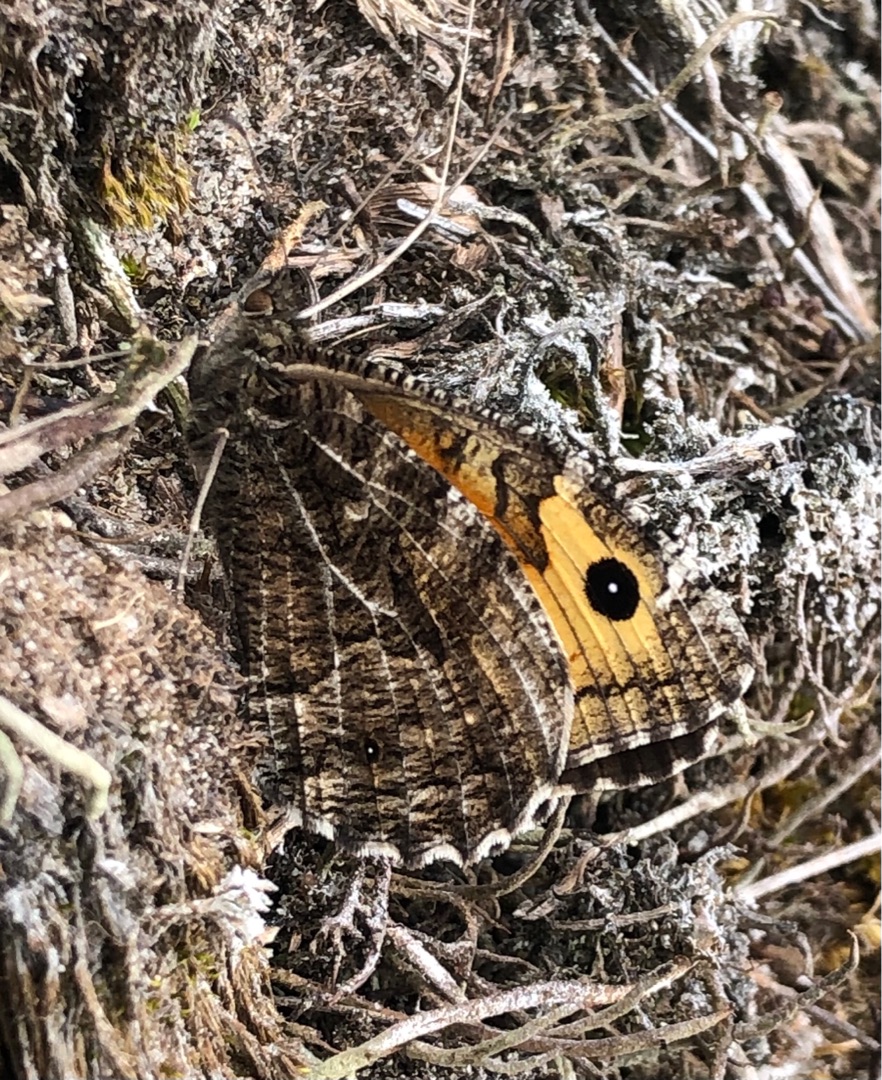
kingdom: Animalia
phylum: Arthropoda
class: Insecta
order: Lepidoptera
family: Nymphalidae
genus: Hipparchia
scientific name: Hipparchia semele
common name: Sandrandøje
